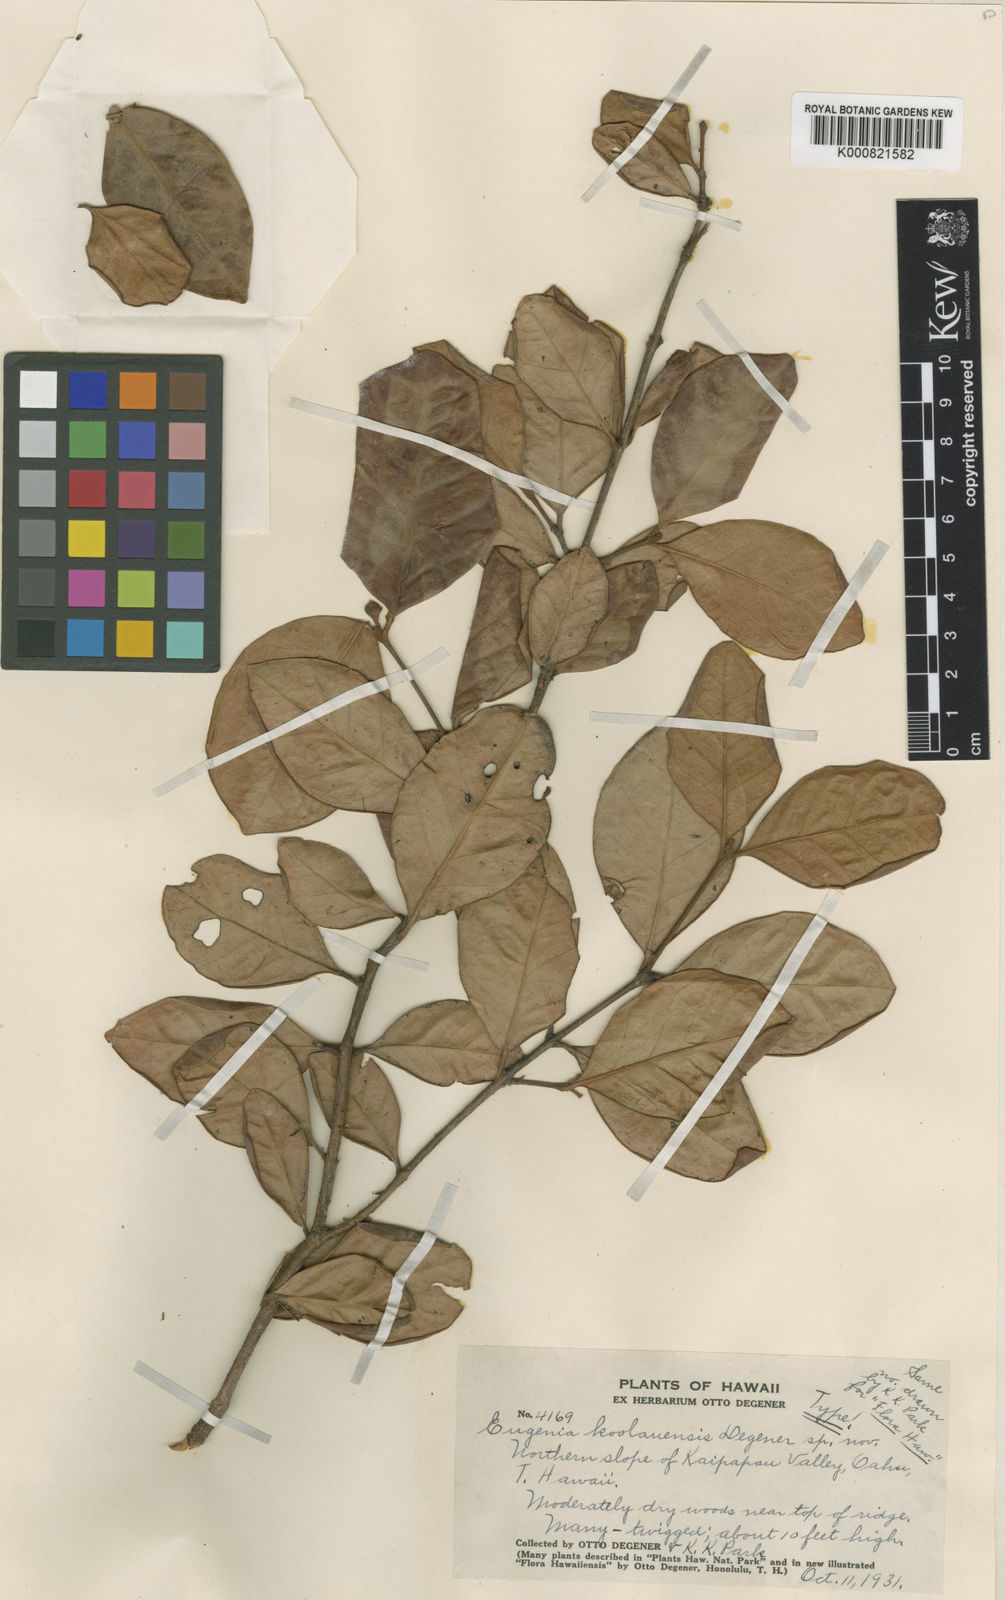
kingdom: Plantae
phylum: Tracheophyta
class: Magnoliopsida
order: Myrtales
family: Myrtaceae
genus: Eugenia
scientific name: Eugenia koolauensis
